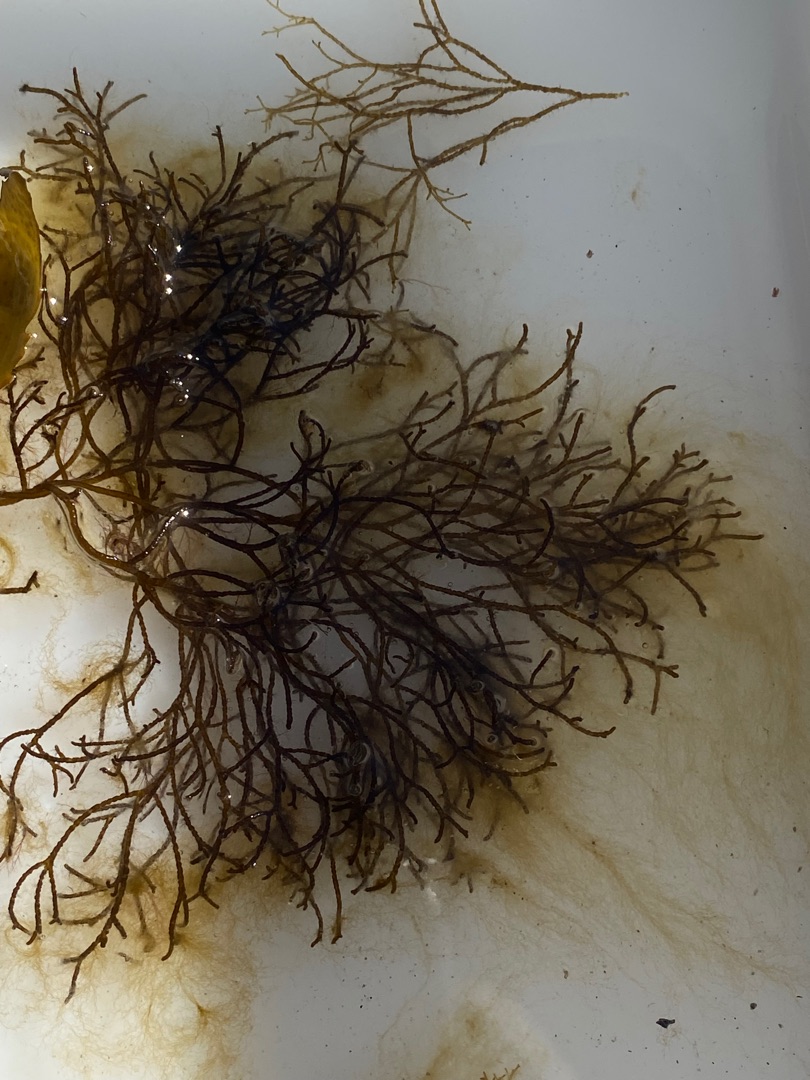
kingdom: Chromista
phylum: Ochrophyta
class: Phaeophyceae
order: Ectocarpales
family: Chordariaceae
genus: Stilophora
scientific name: Stilophora tenella
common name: Ru fregnetang
